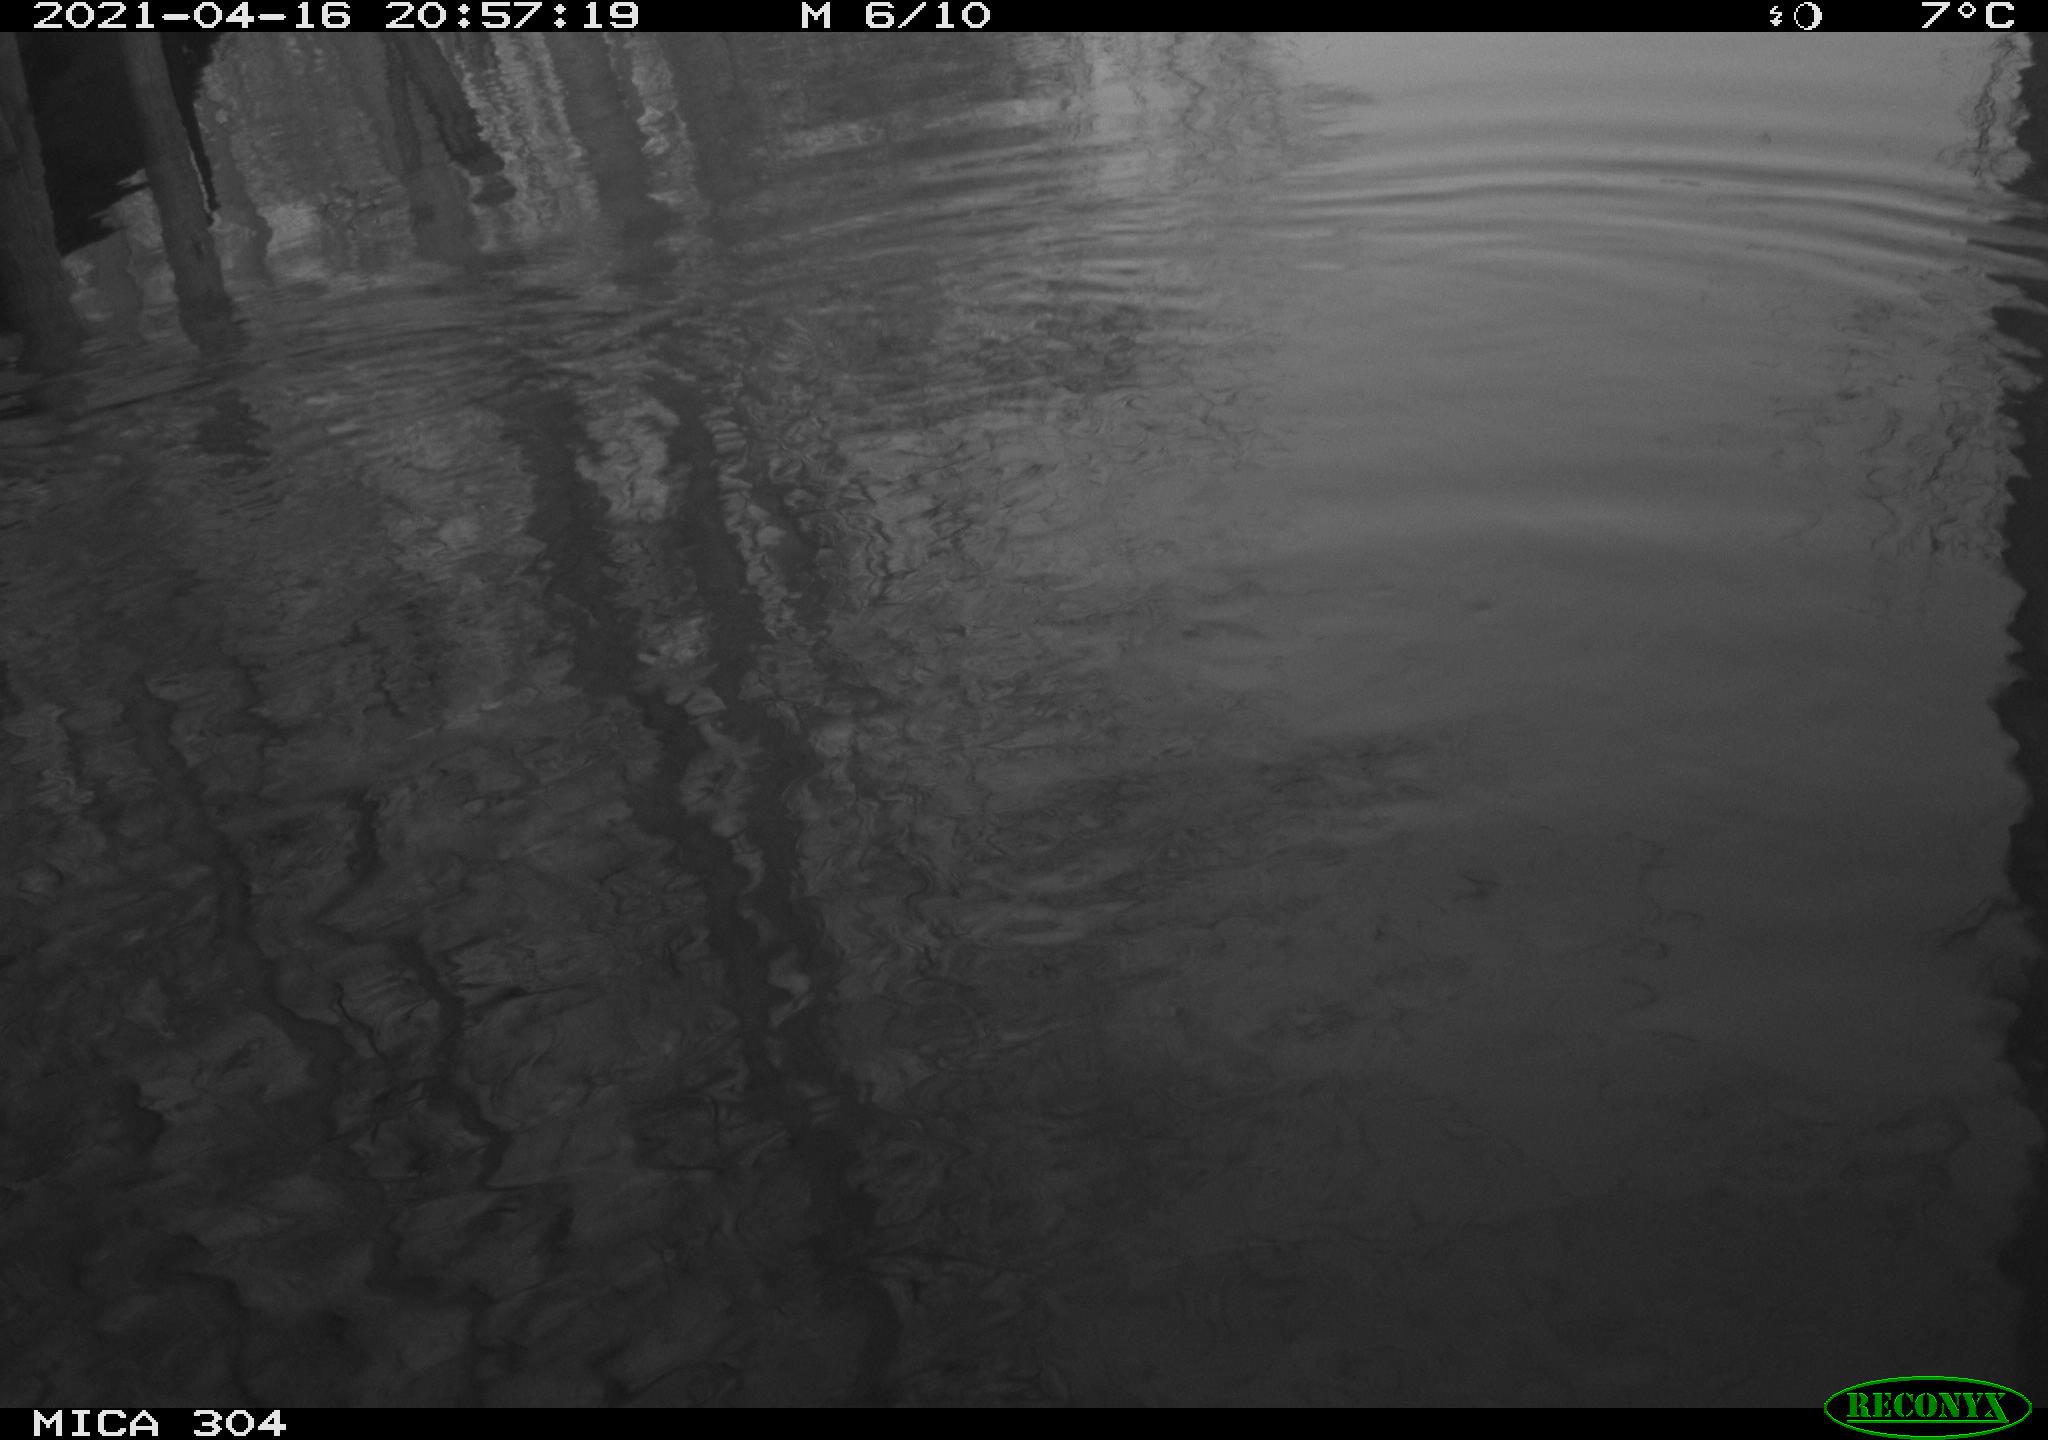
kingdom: Animalia
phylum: Chordata
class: Aves
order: Anseriformes
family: Anatidae
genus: Anas
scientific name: Anas
